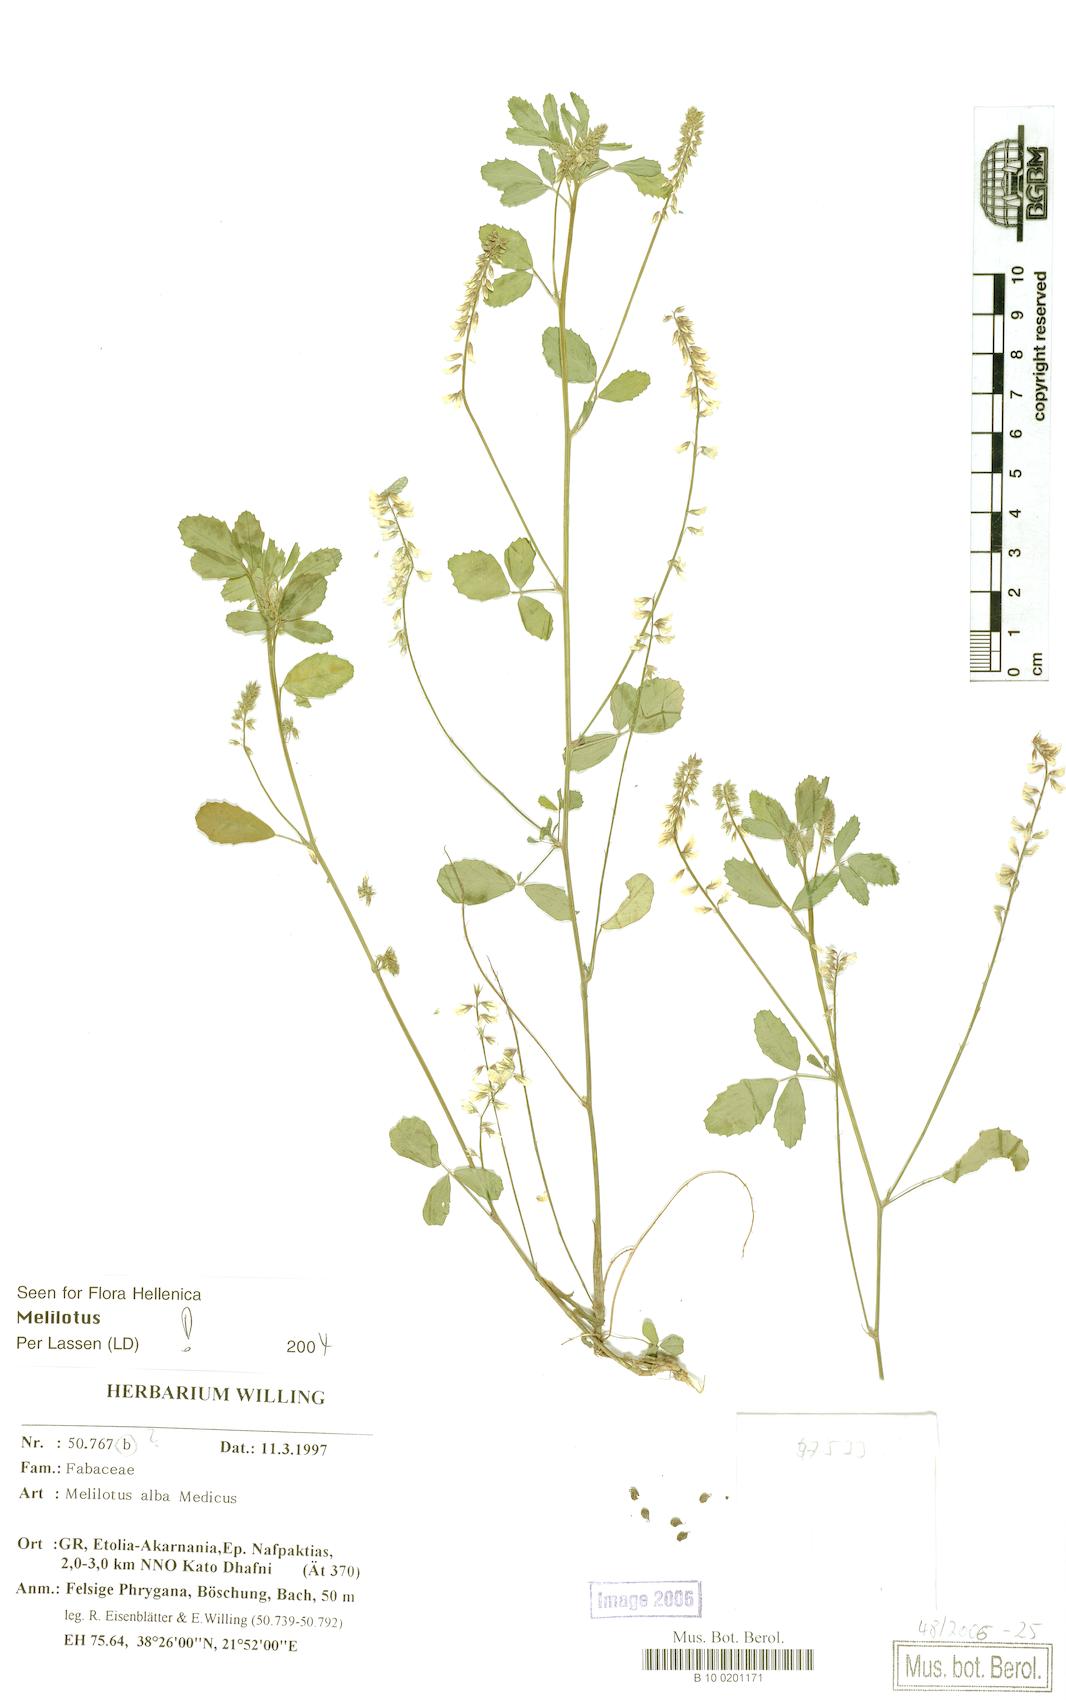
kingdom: Plantae
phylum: Tracheophyta
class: Magnoliopsida
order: Fabales
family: Fabaceae
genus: Melilotus
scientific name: Melilotus albus
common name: White melilot
